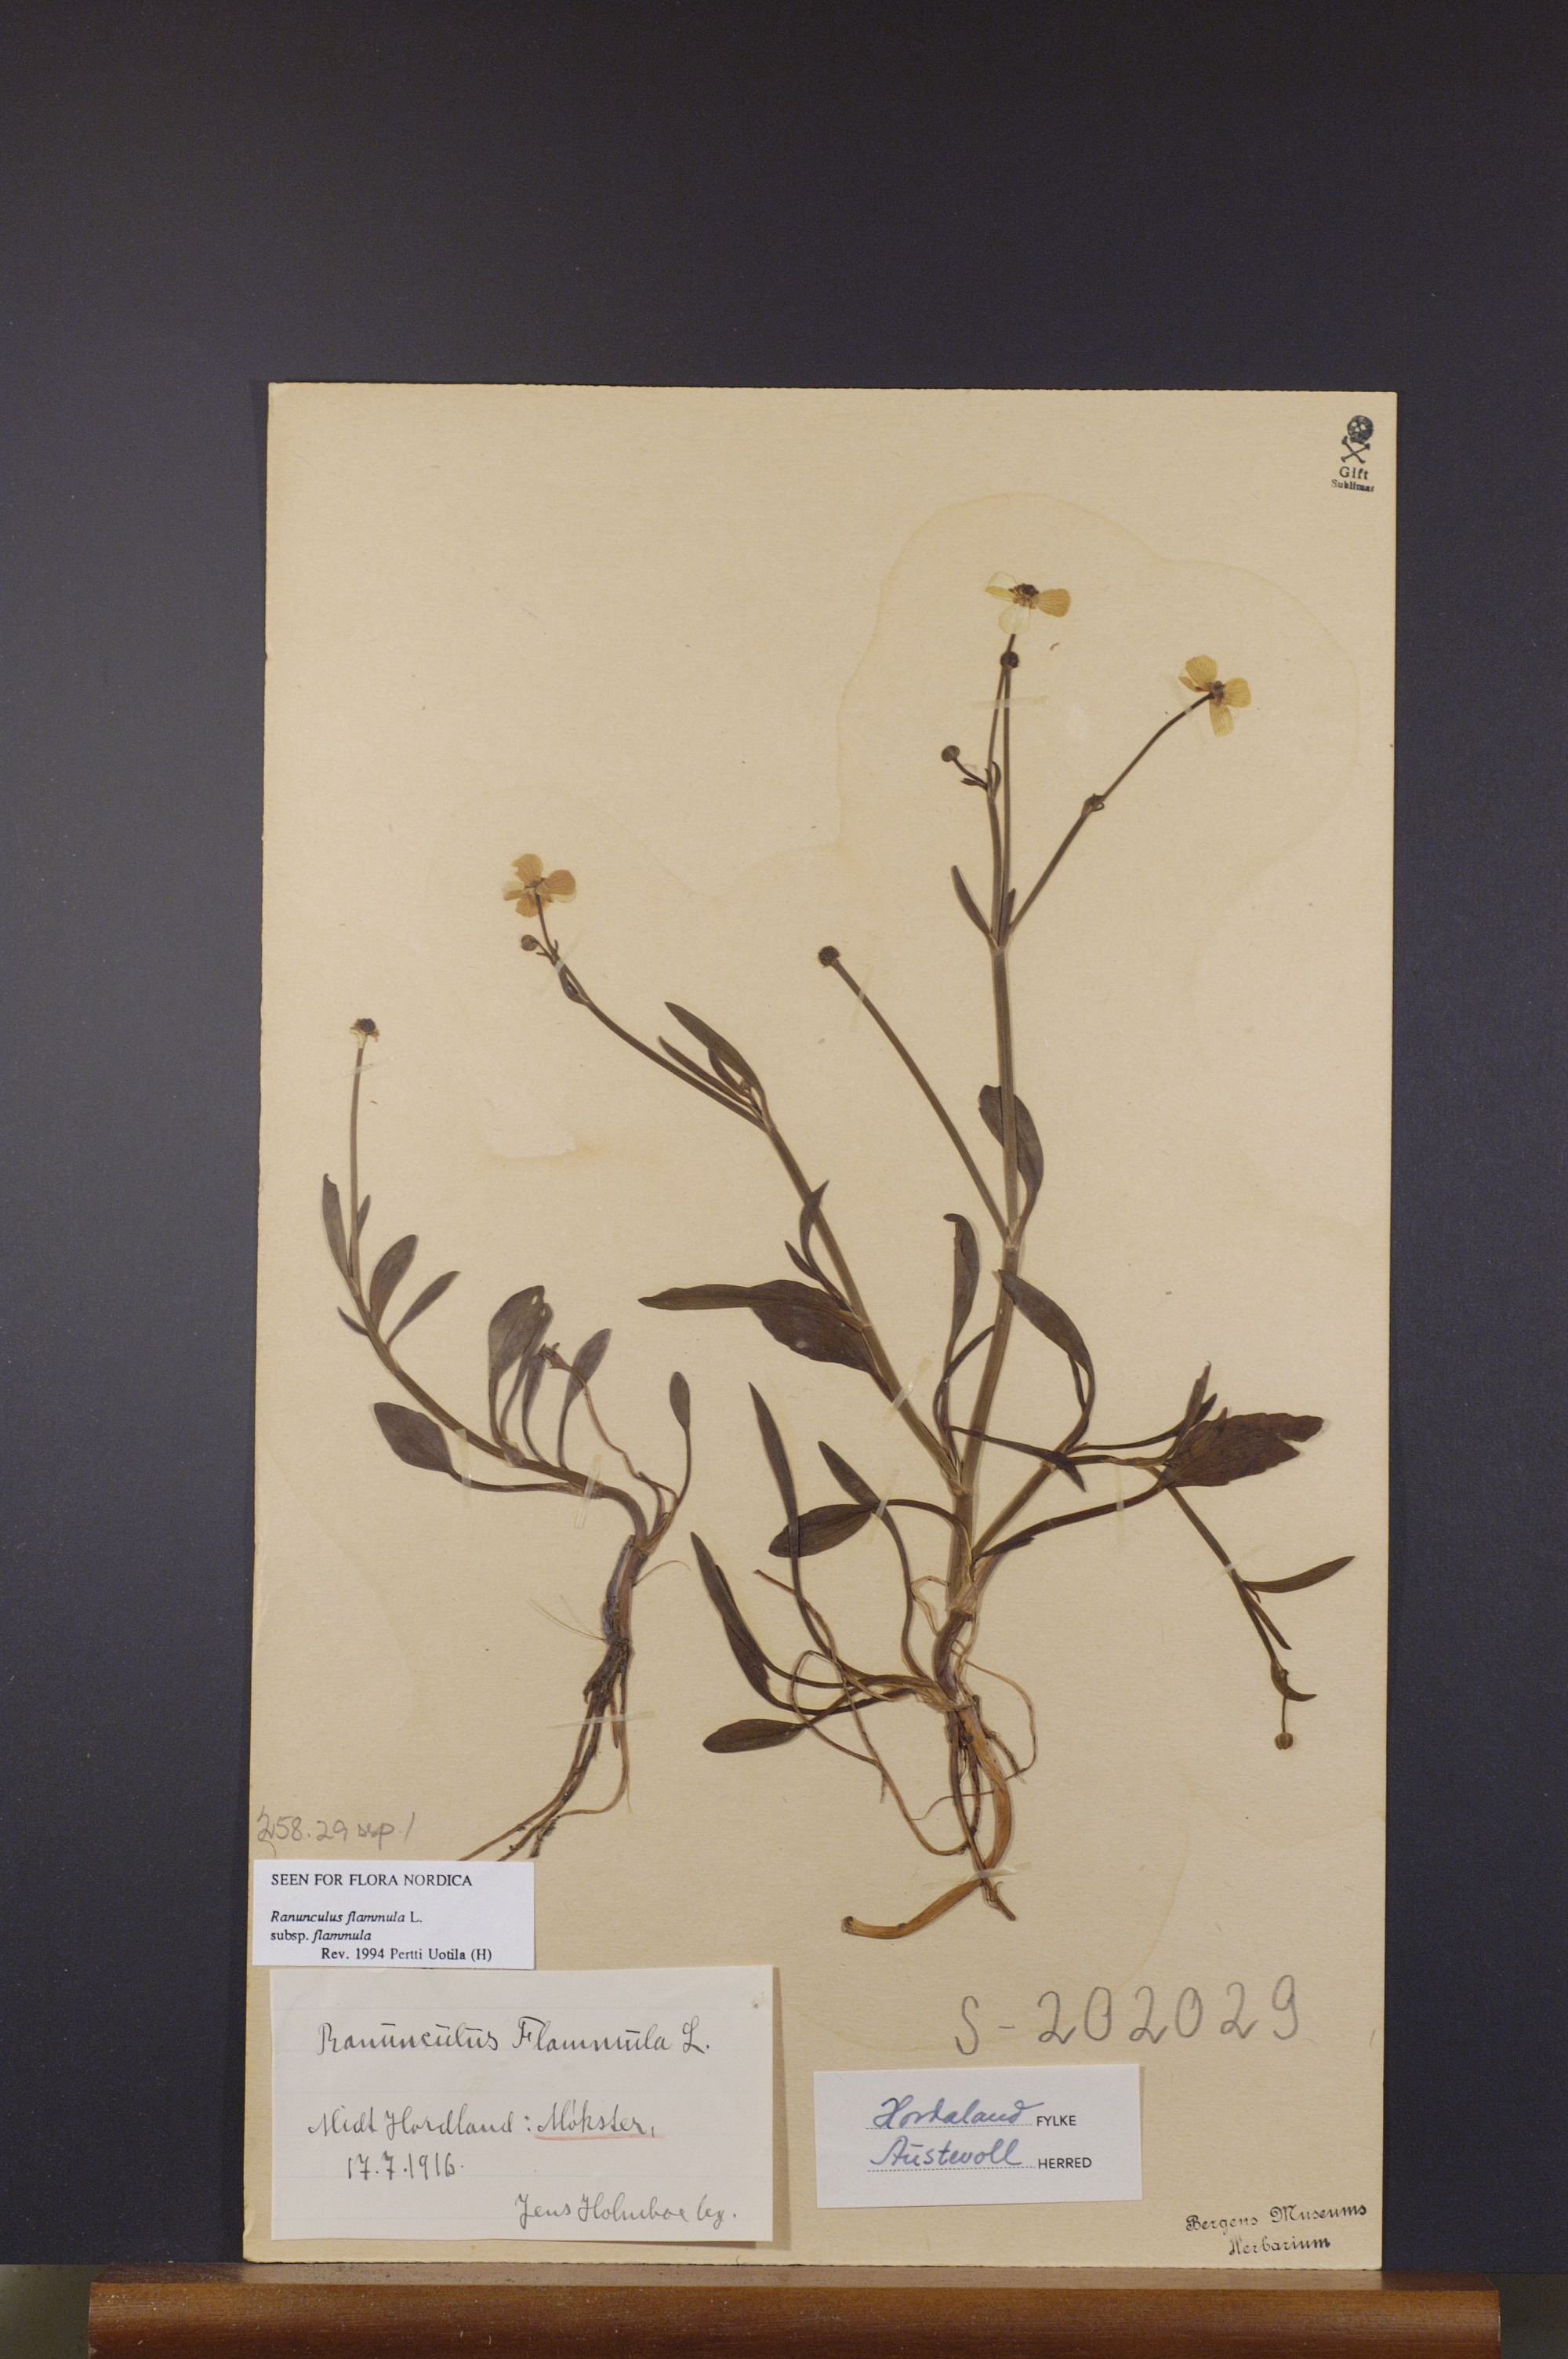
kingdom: Plantae
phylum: Tracheophyta
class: Magnoliopsida
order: Ranunculales
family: Ranunculaceae
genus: Ranunculus
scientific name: Ranunculus flammula
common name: Lesser spearwort
